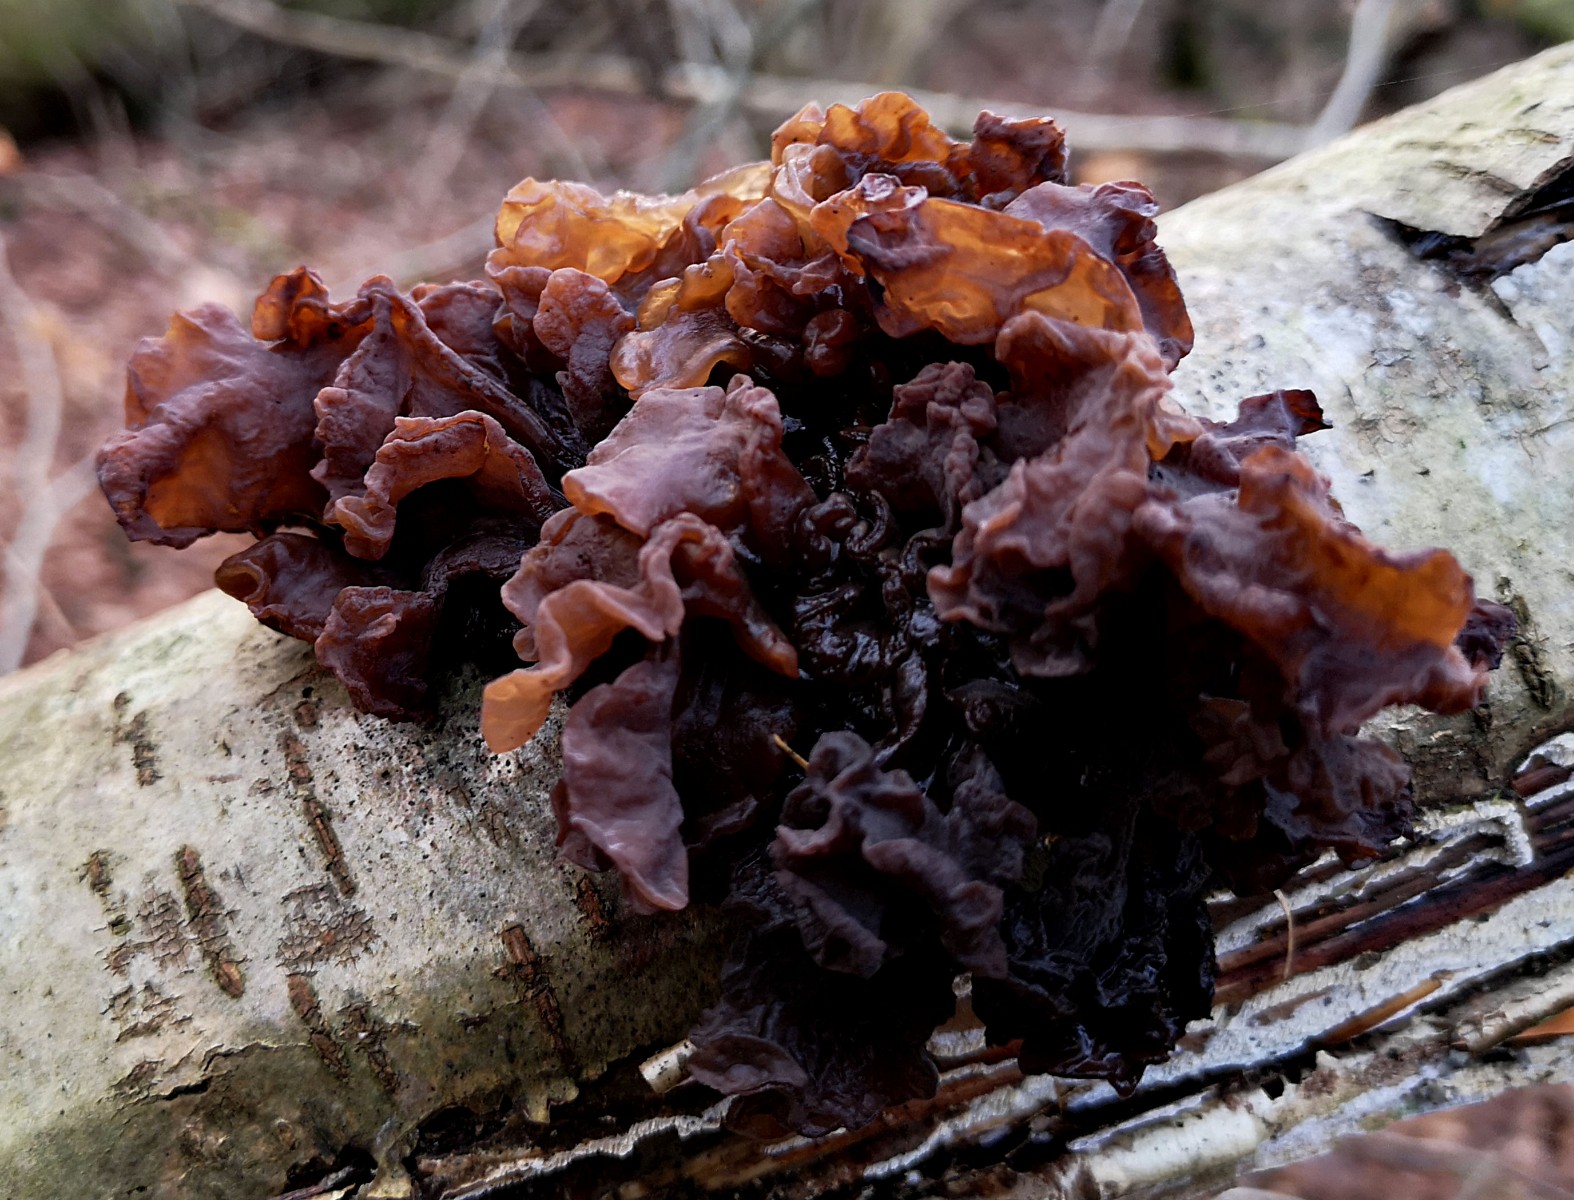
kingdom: Fungi
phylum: Basidiomycota
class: Tremellomycetes
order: Tremellales
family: Tremellaceae
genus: Phaeotremella
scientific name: Phaeotremella frondosa
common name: kæmpe-bævresvamp
